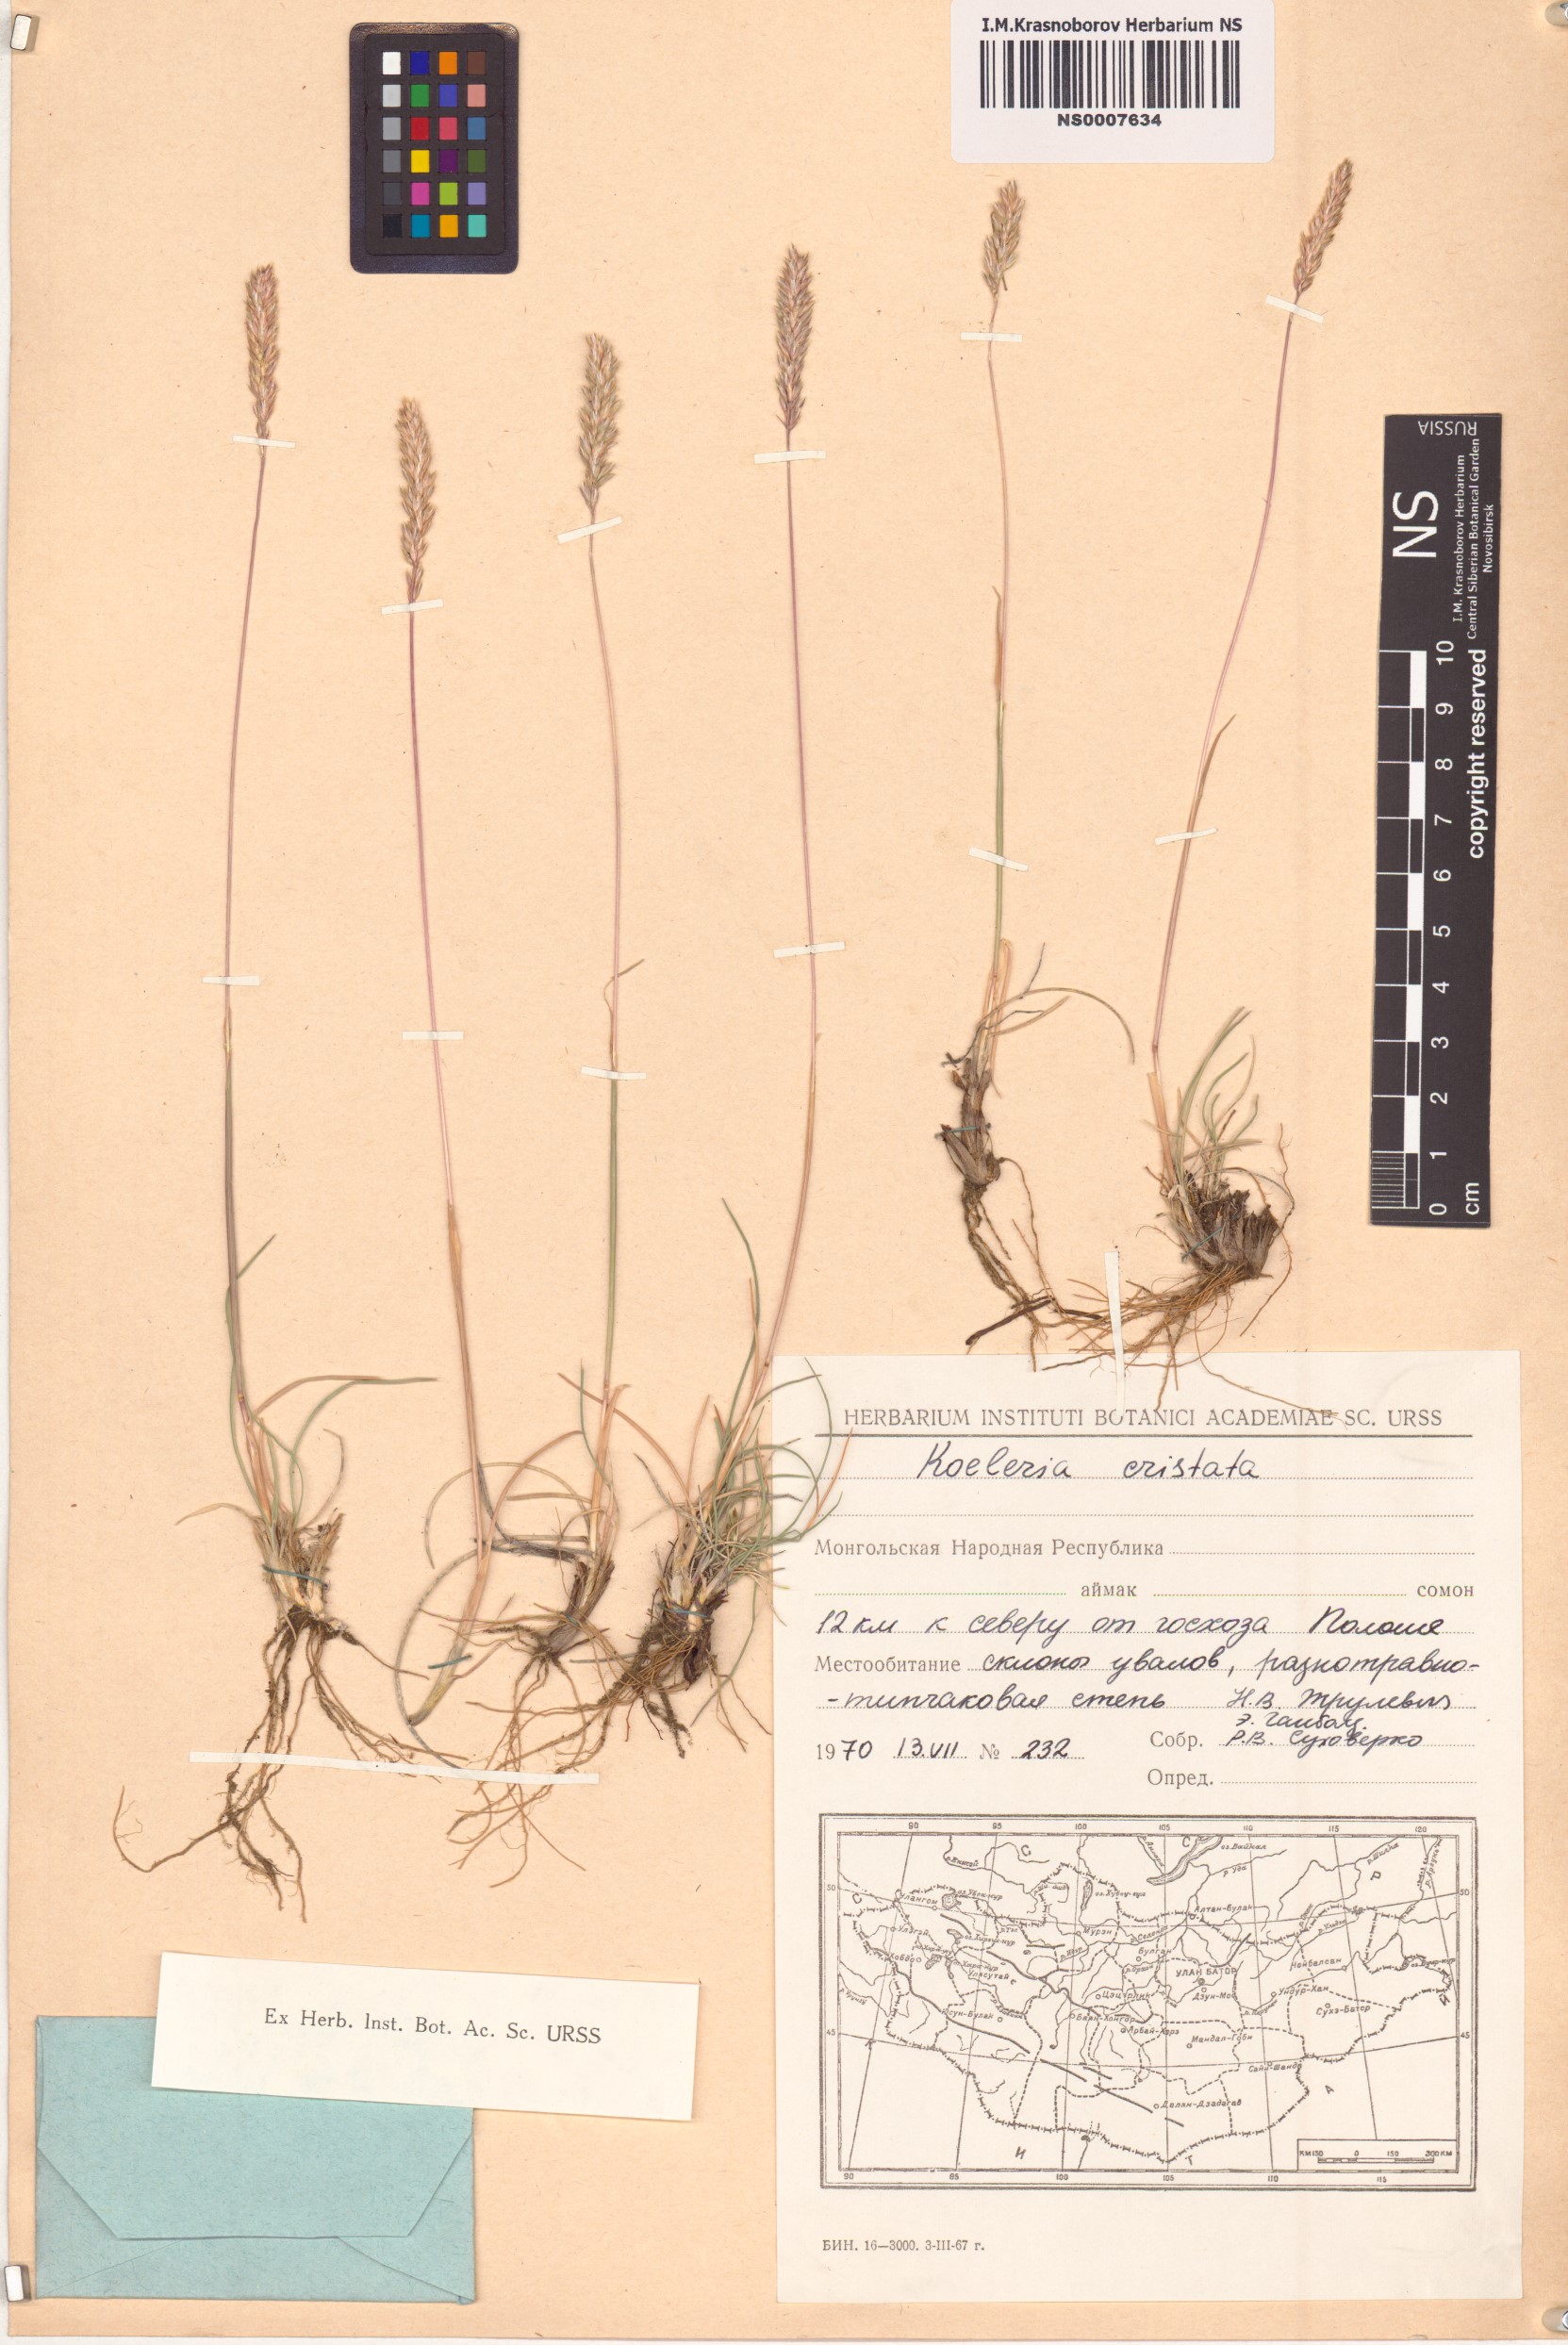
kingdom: Plantae
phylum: Tracheophyta
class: Liliopsida
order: Poales
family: Poaceae
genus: Rostraria
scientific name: Rostraria cristata
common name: Mediterranean hair-grass
